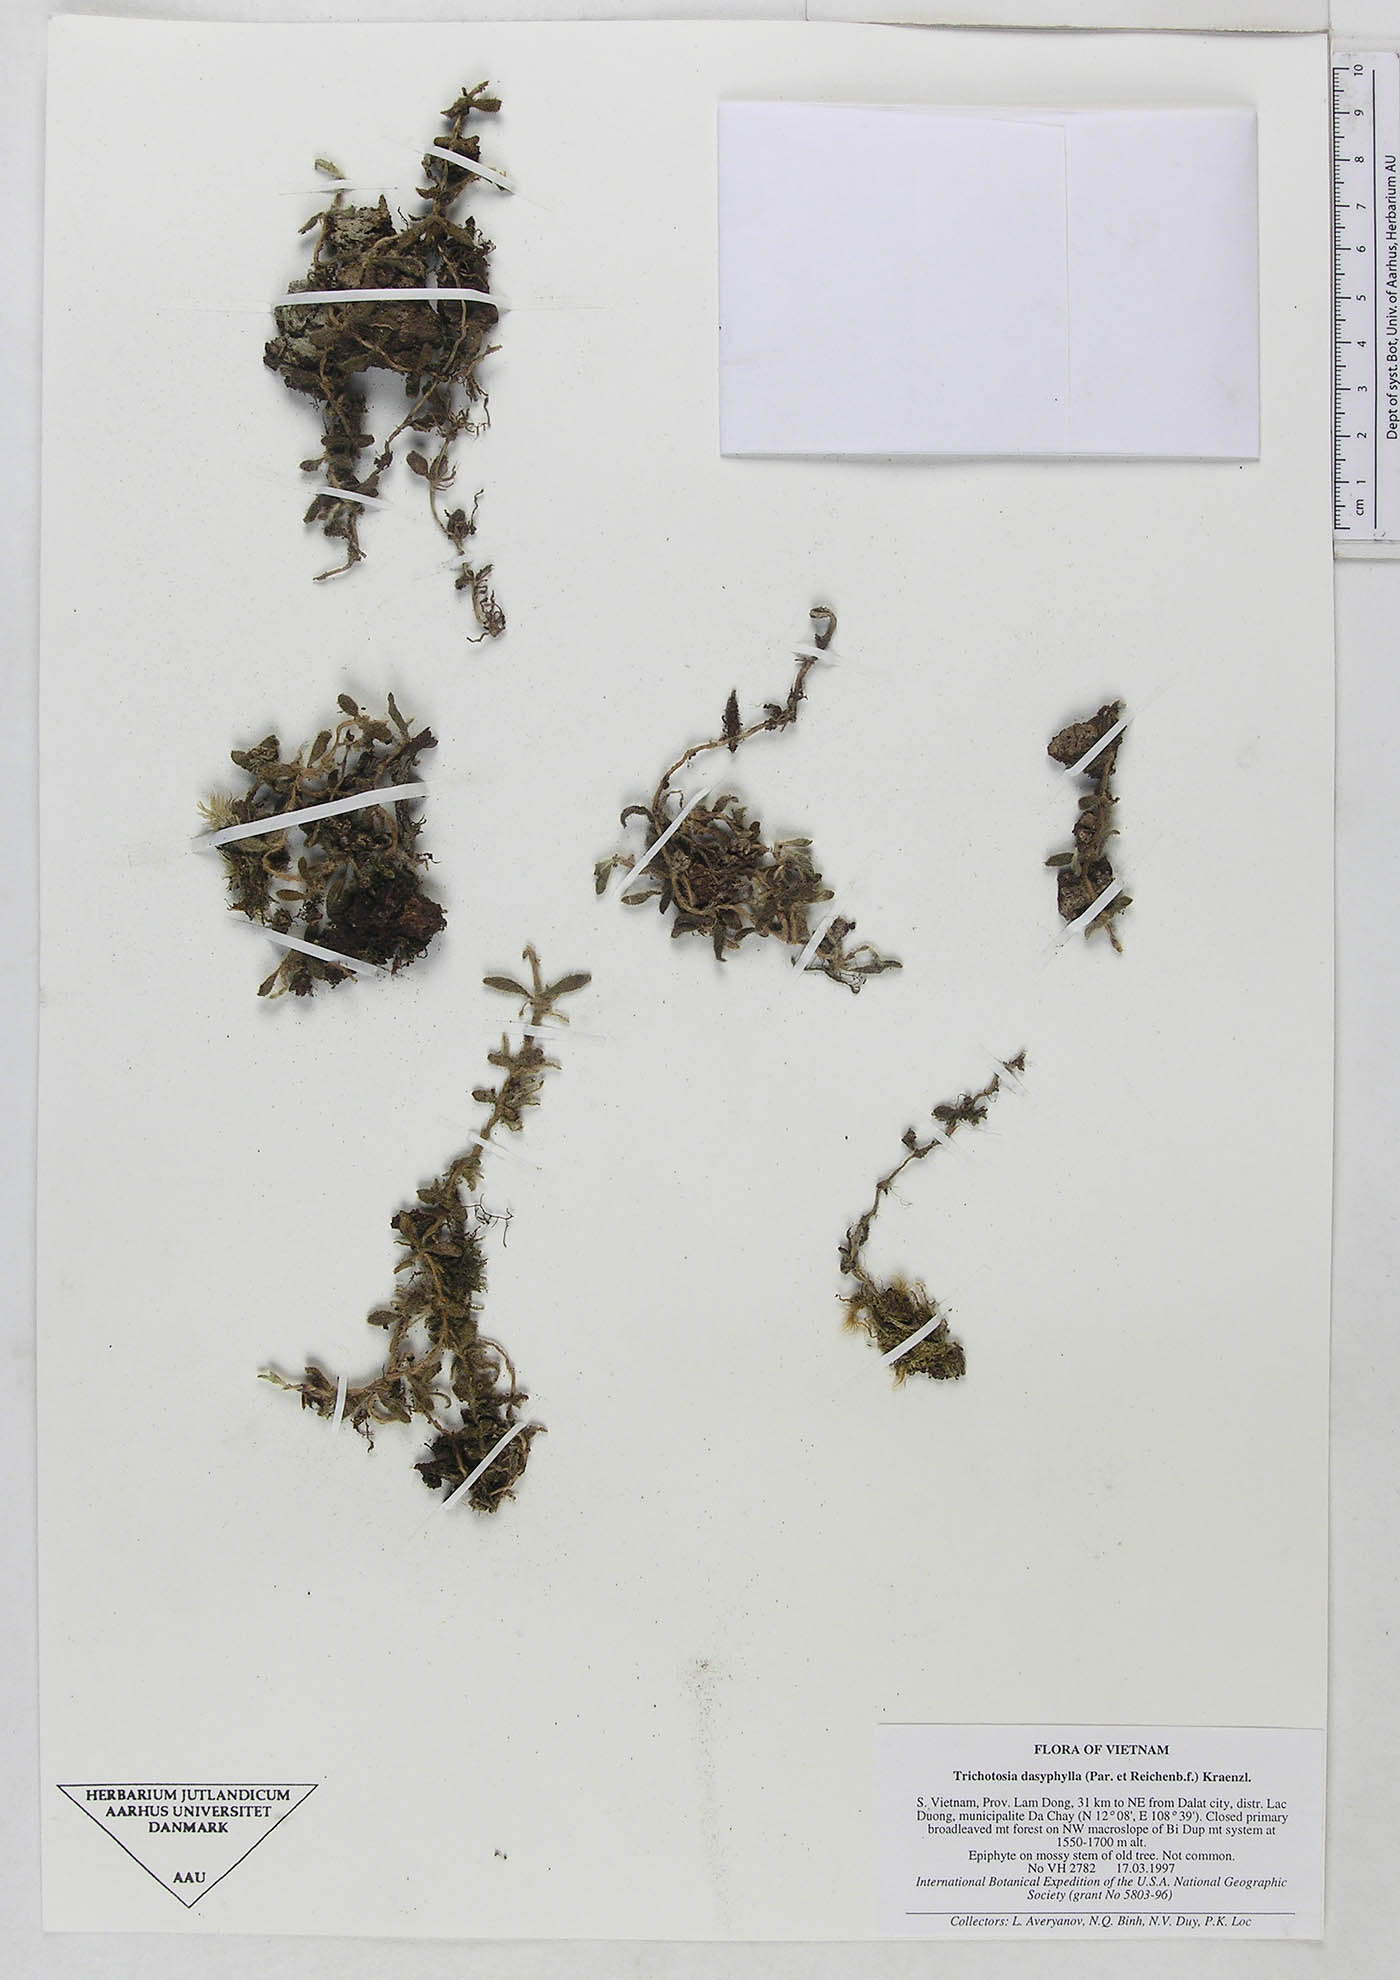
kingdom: Plantae
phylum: Tracheophyta
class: Liliopsida
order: Asparagales
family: Orchidaceae
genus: Trichotosia
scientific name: Trichotosia dasyphylla
